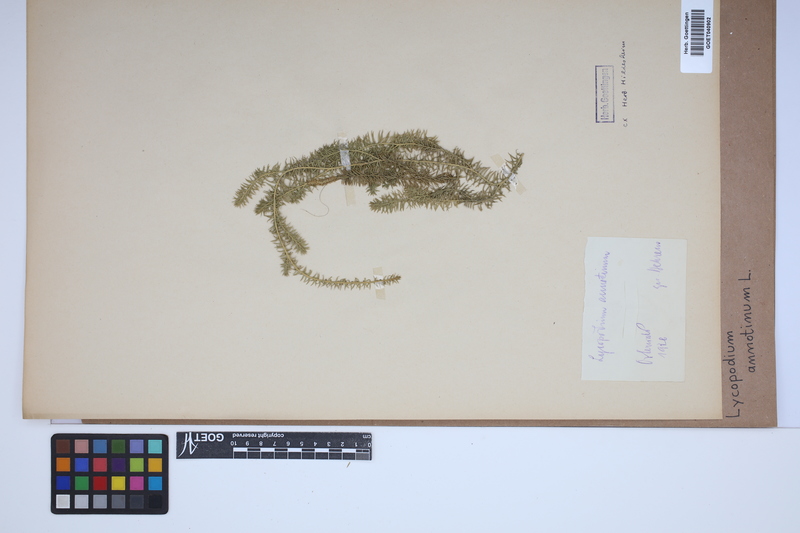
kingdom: Plantae
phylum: Tracheophyta
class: Lycopodiopsida
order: Lycopodiales
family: Lycopodiaceae
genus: Spinulum
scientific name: Spinulum annotinum
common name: Interrupted club-moss
